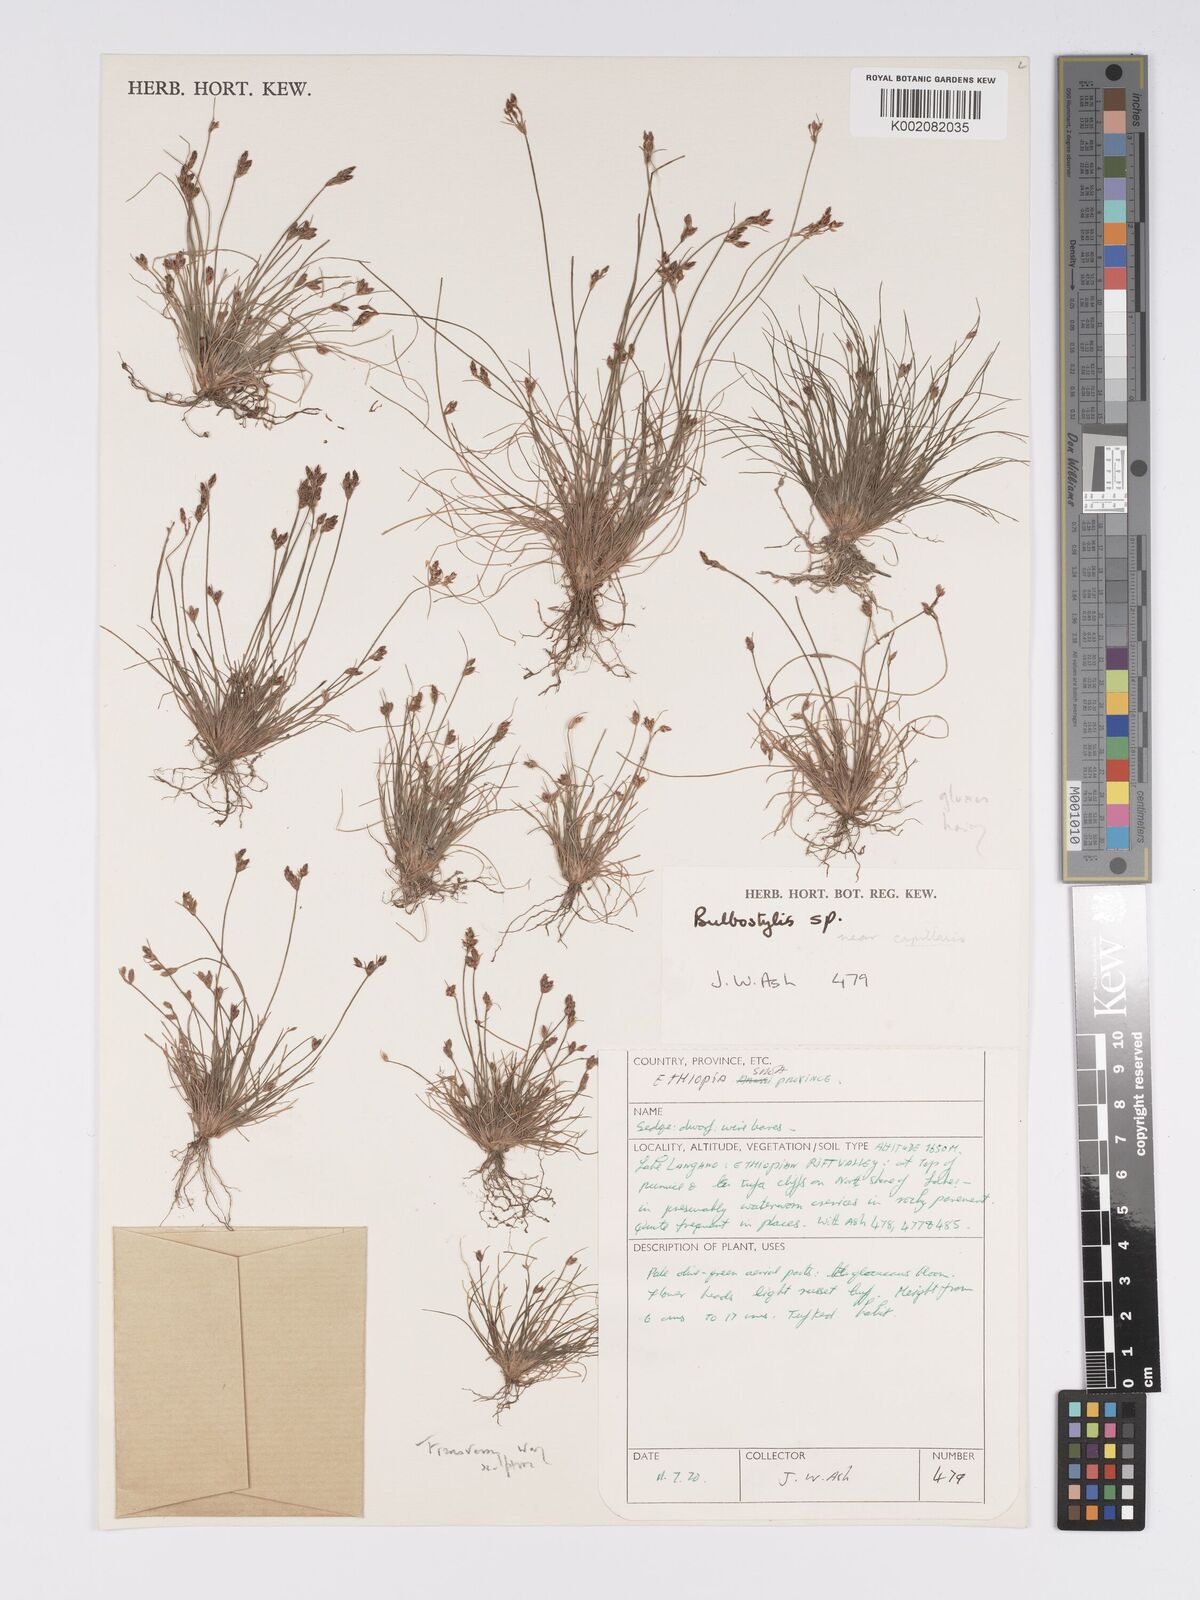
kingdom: Plantae
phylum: Tracheophyta
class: Liliopsida
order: Poales
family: Cyperaceae
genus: Bulbostylis
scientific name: Bulbostylis pusilla
